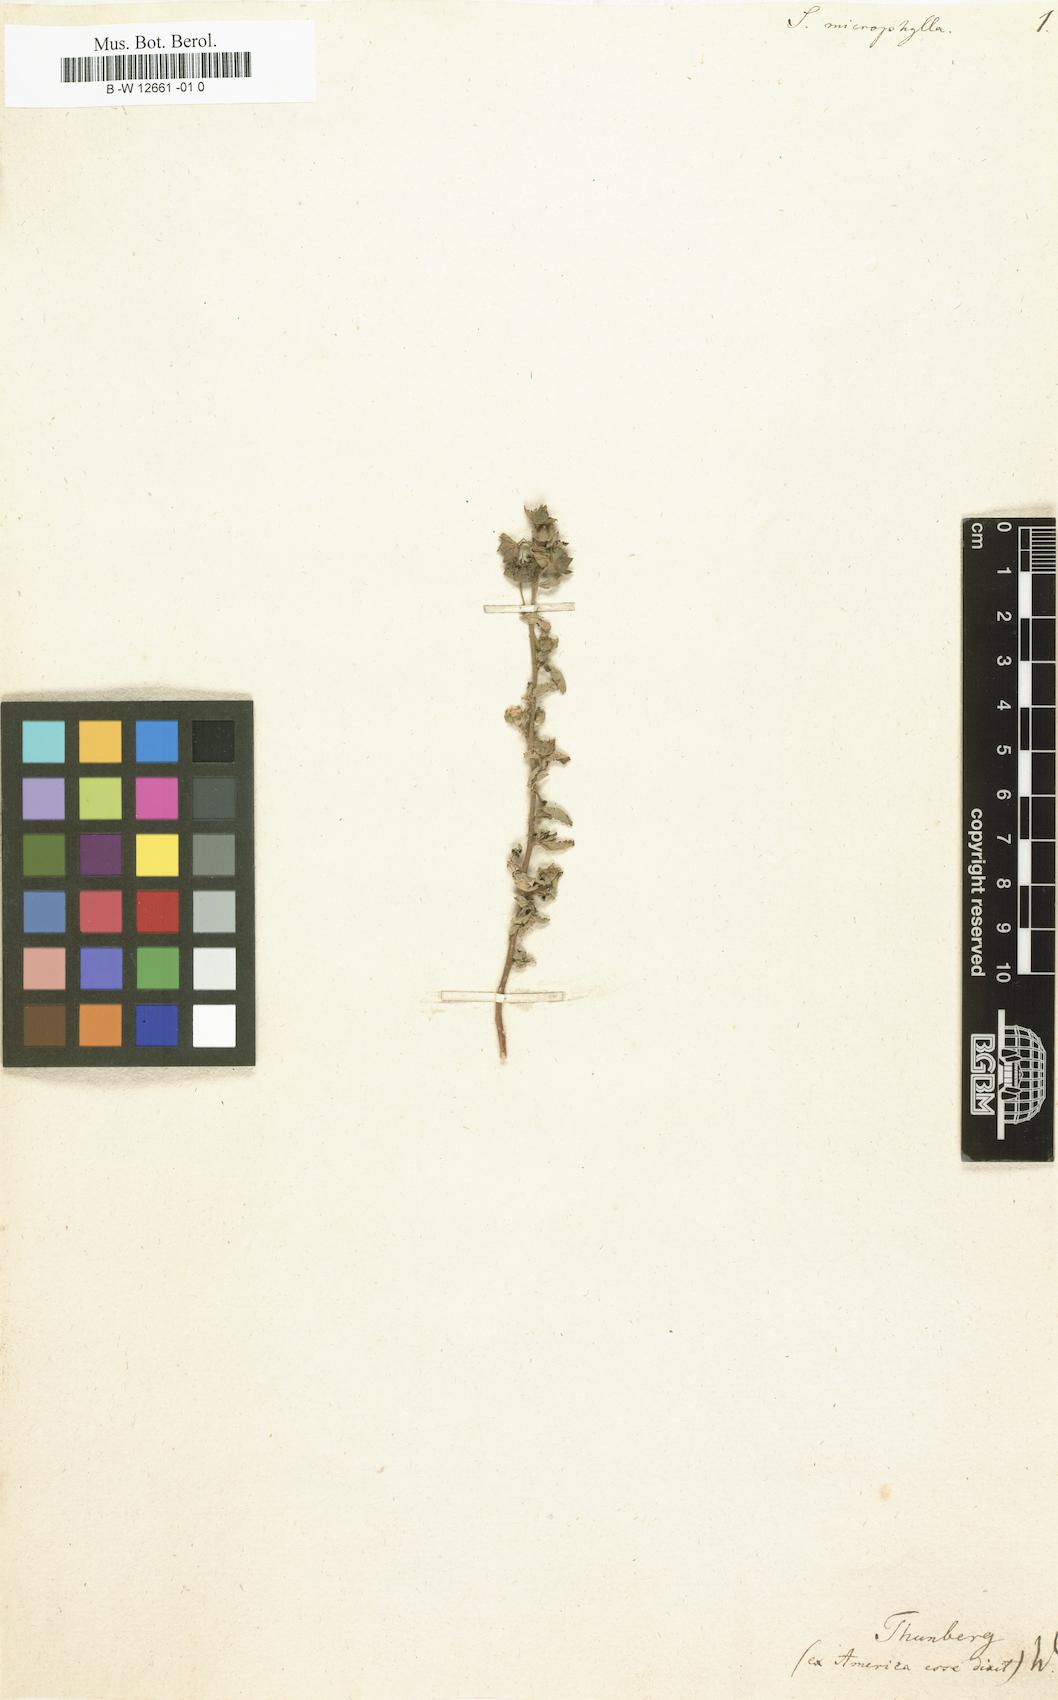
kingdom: Plantae
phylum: Tracheophyta
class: Magnoliopsida
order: Malvales
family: Malvaceae
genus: Sida
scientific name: Sida
